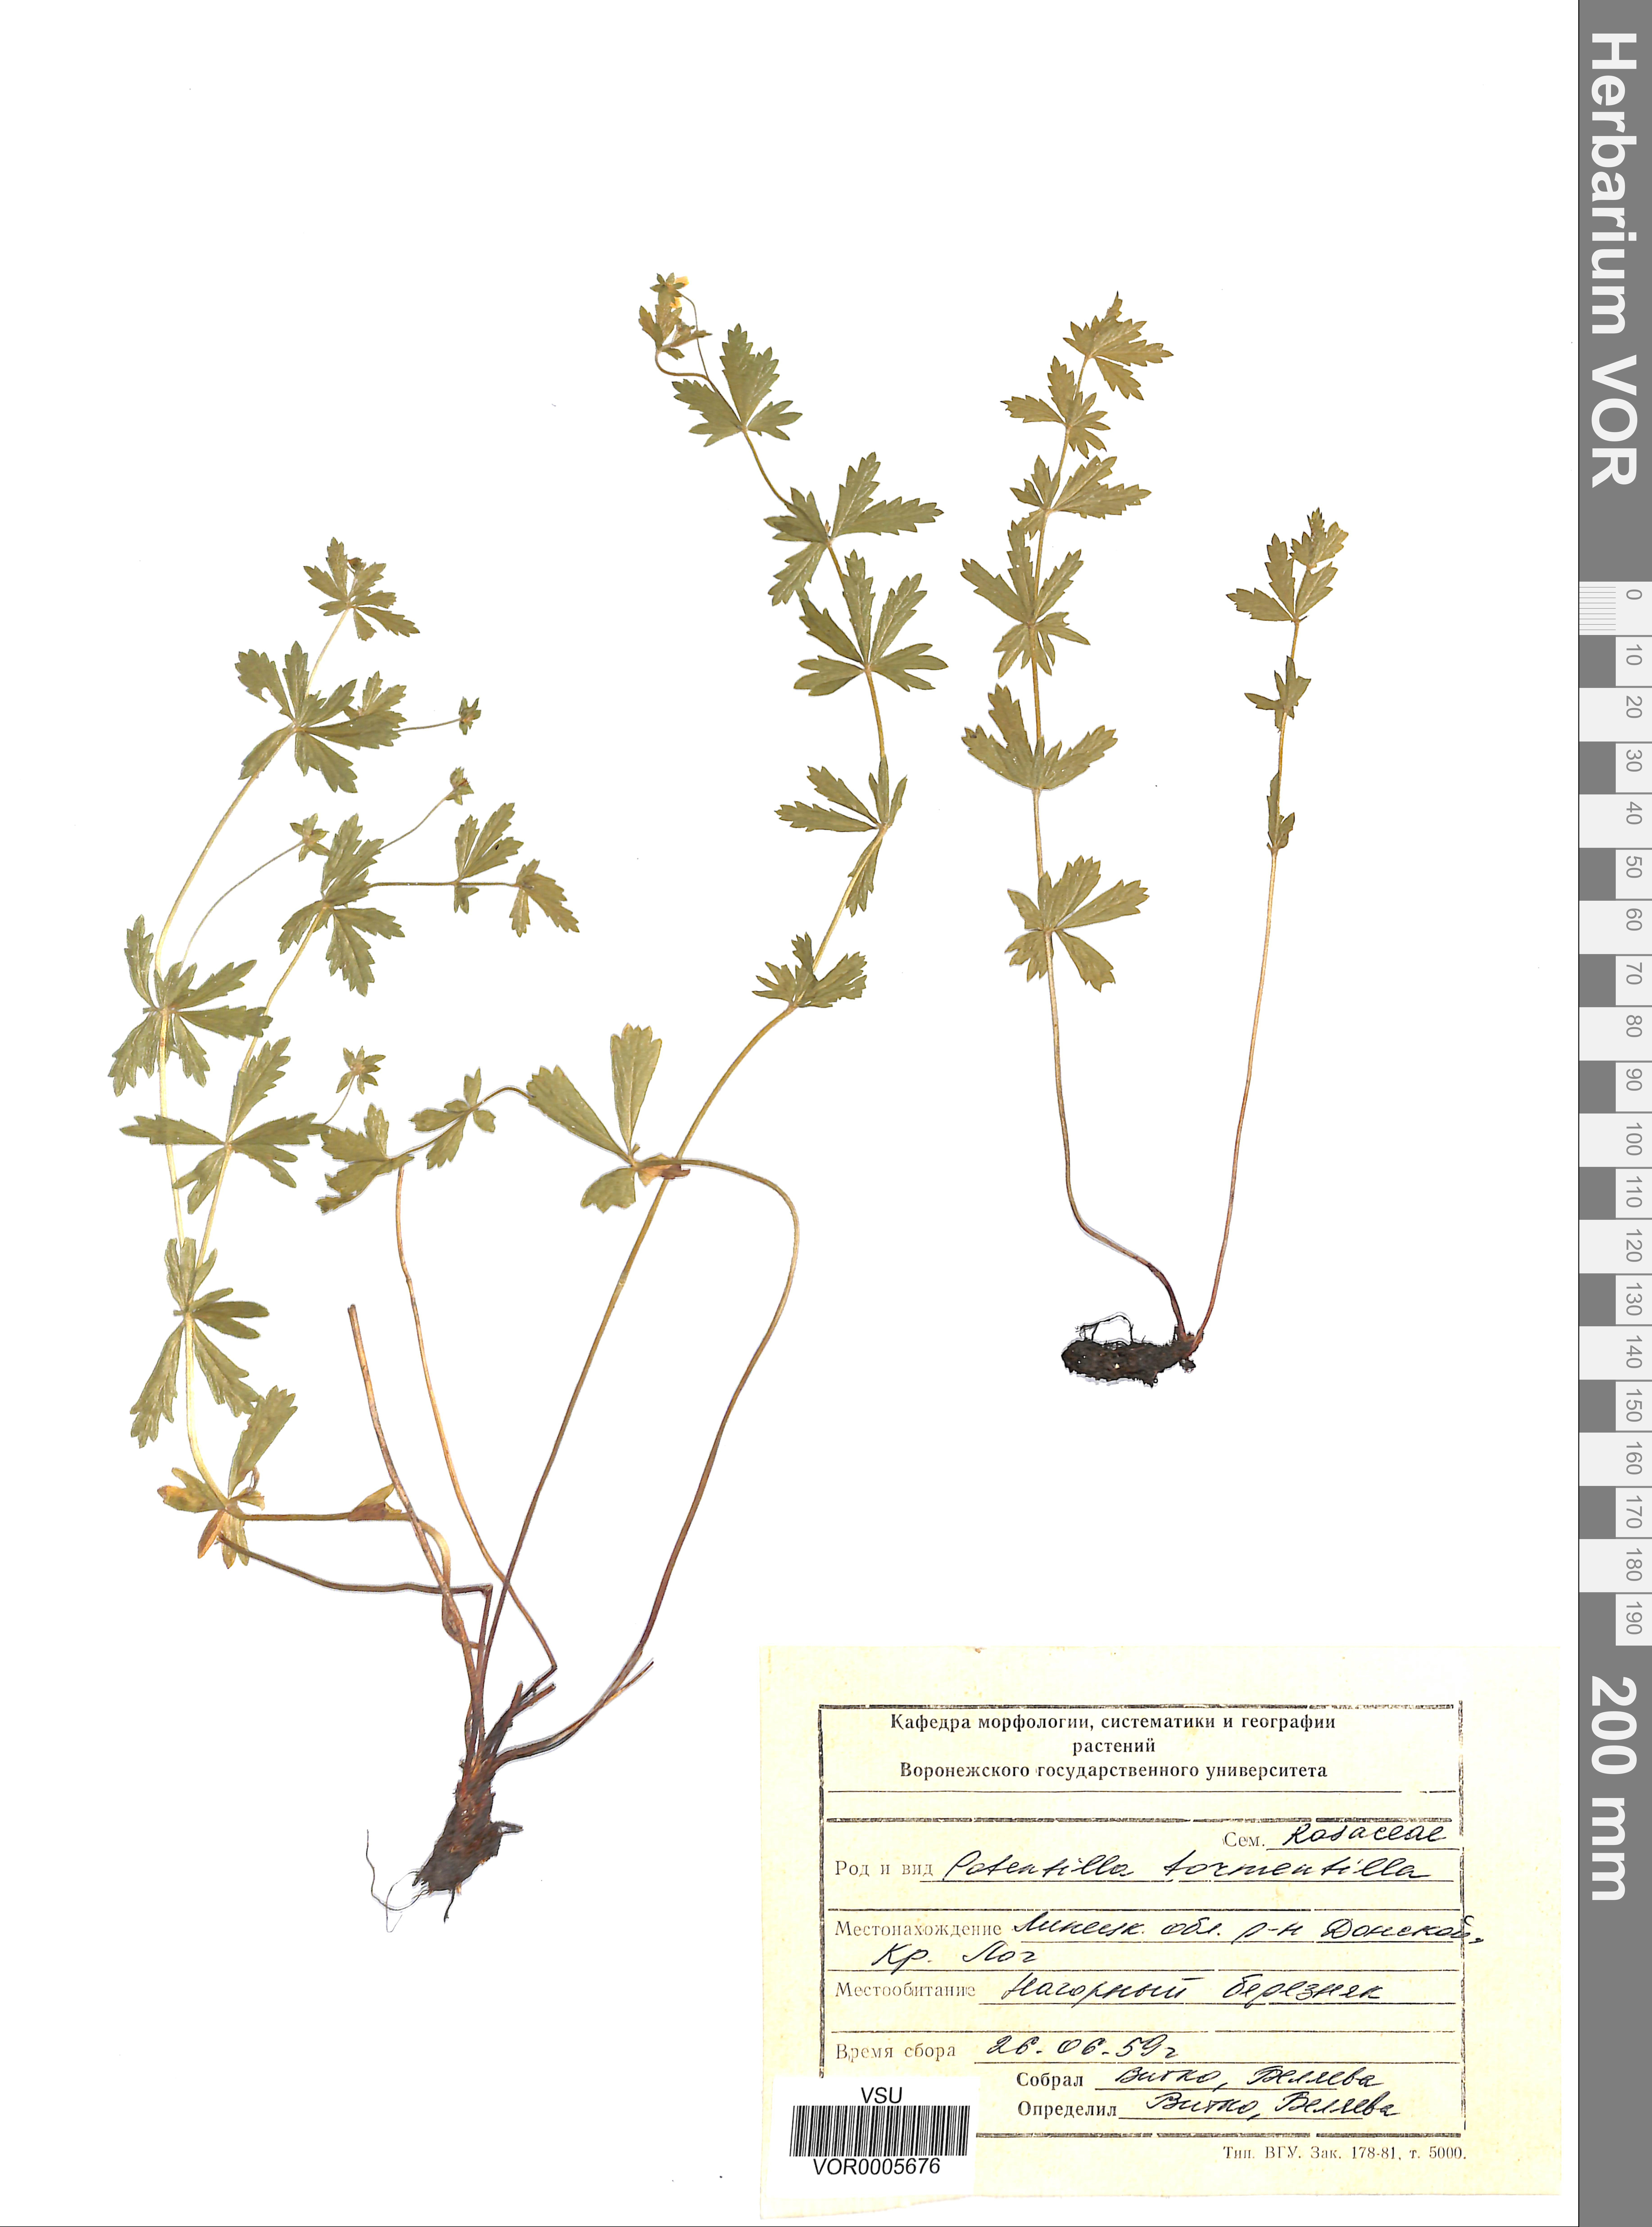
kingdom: Plantae
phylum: Tracheophyta
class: Magnoliopsida
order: Rosales
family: Rosaceae
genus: Potentilla
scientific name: Potentilla erecta
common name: Tormentil
